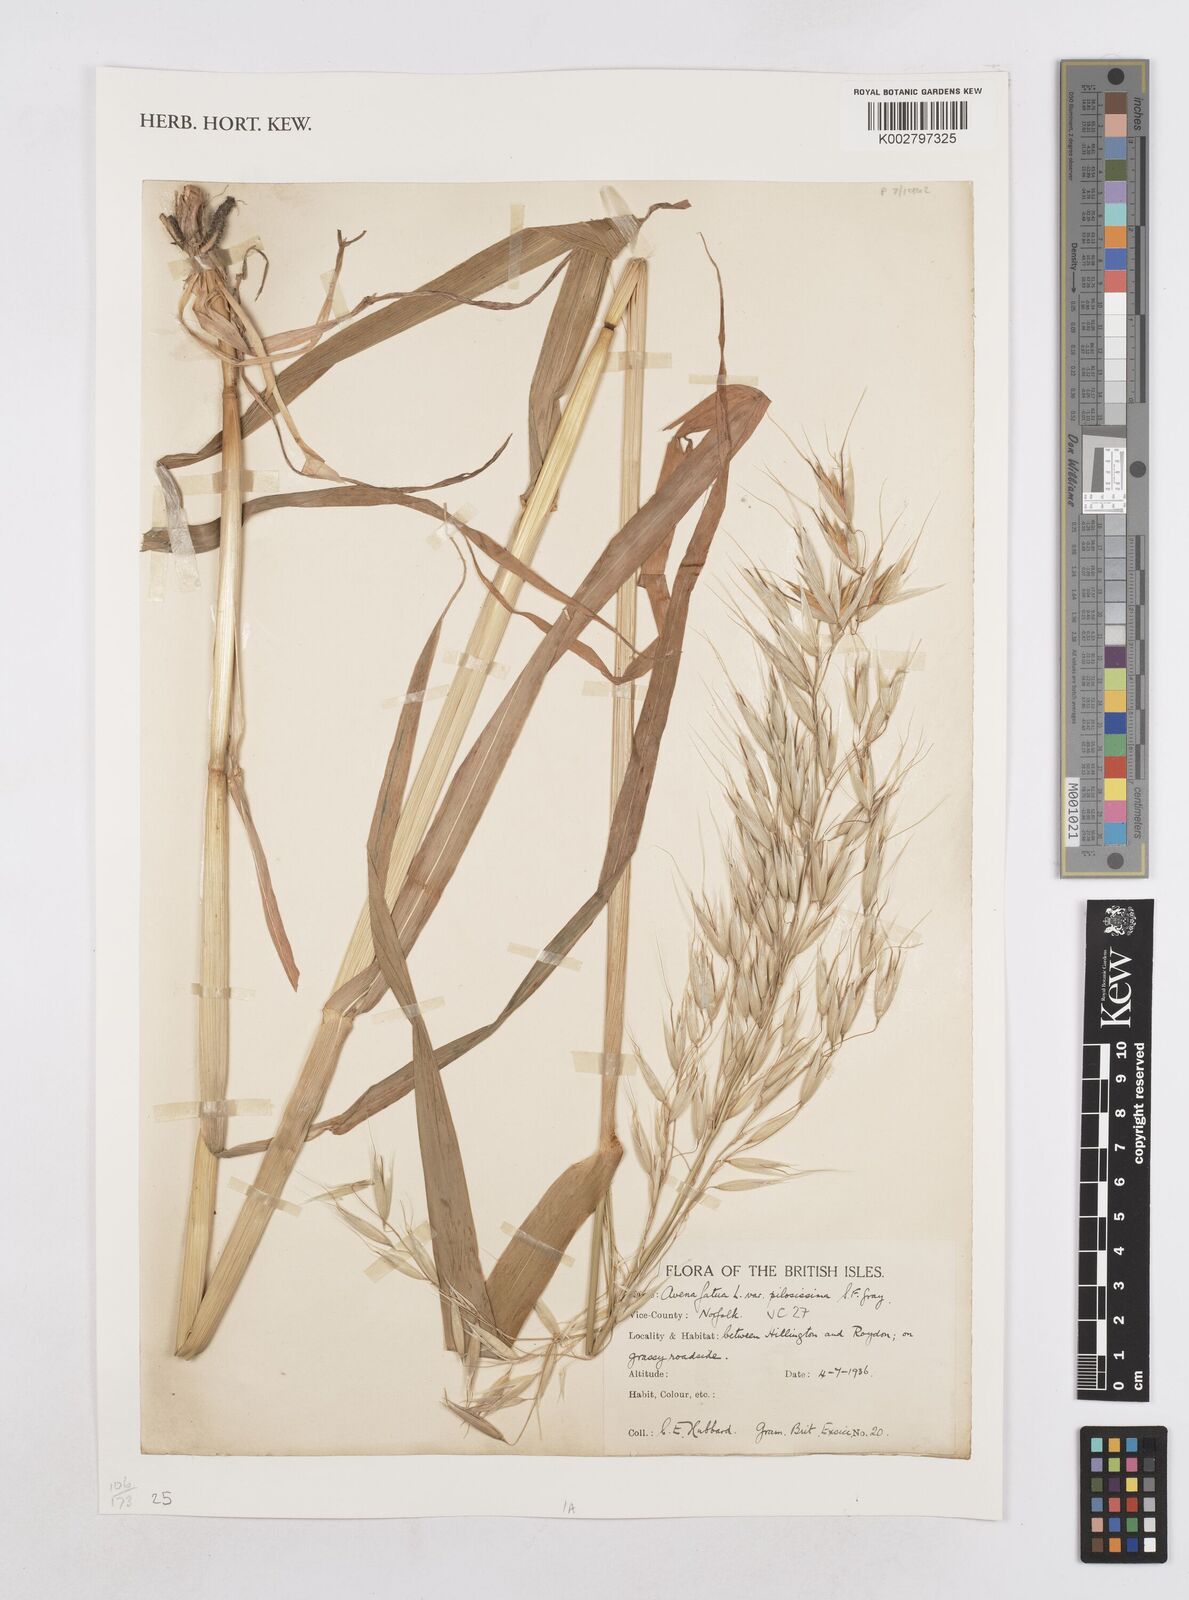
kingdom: Plantae
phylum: Tracheophyta
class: Liliopsida
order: Poales
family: Poaceae
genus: Avena
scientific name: Avena fatua
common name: Wild oat
